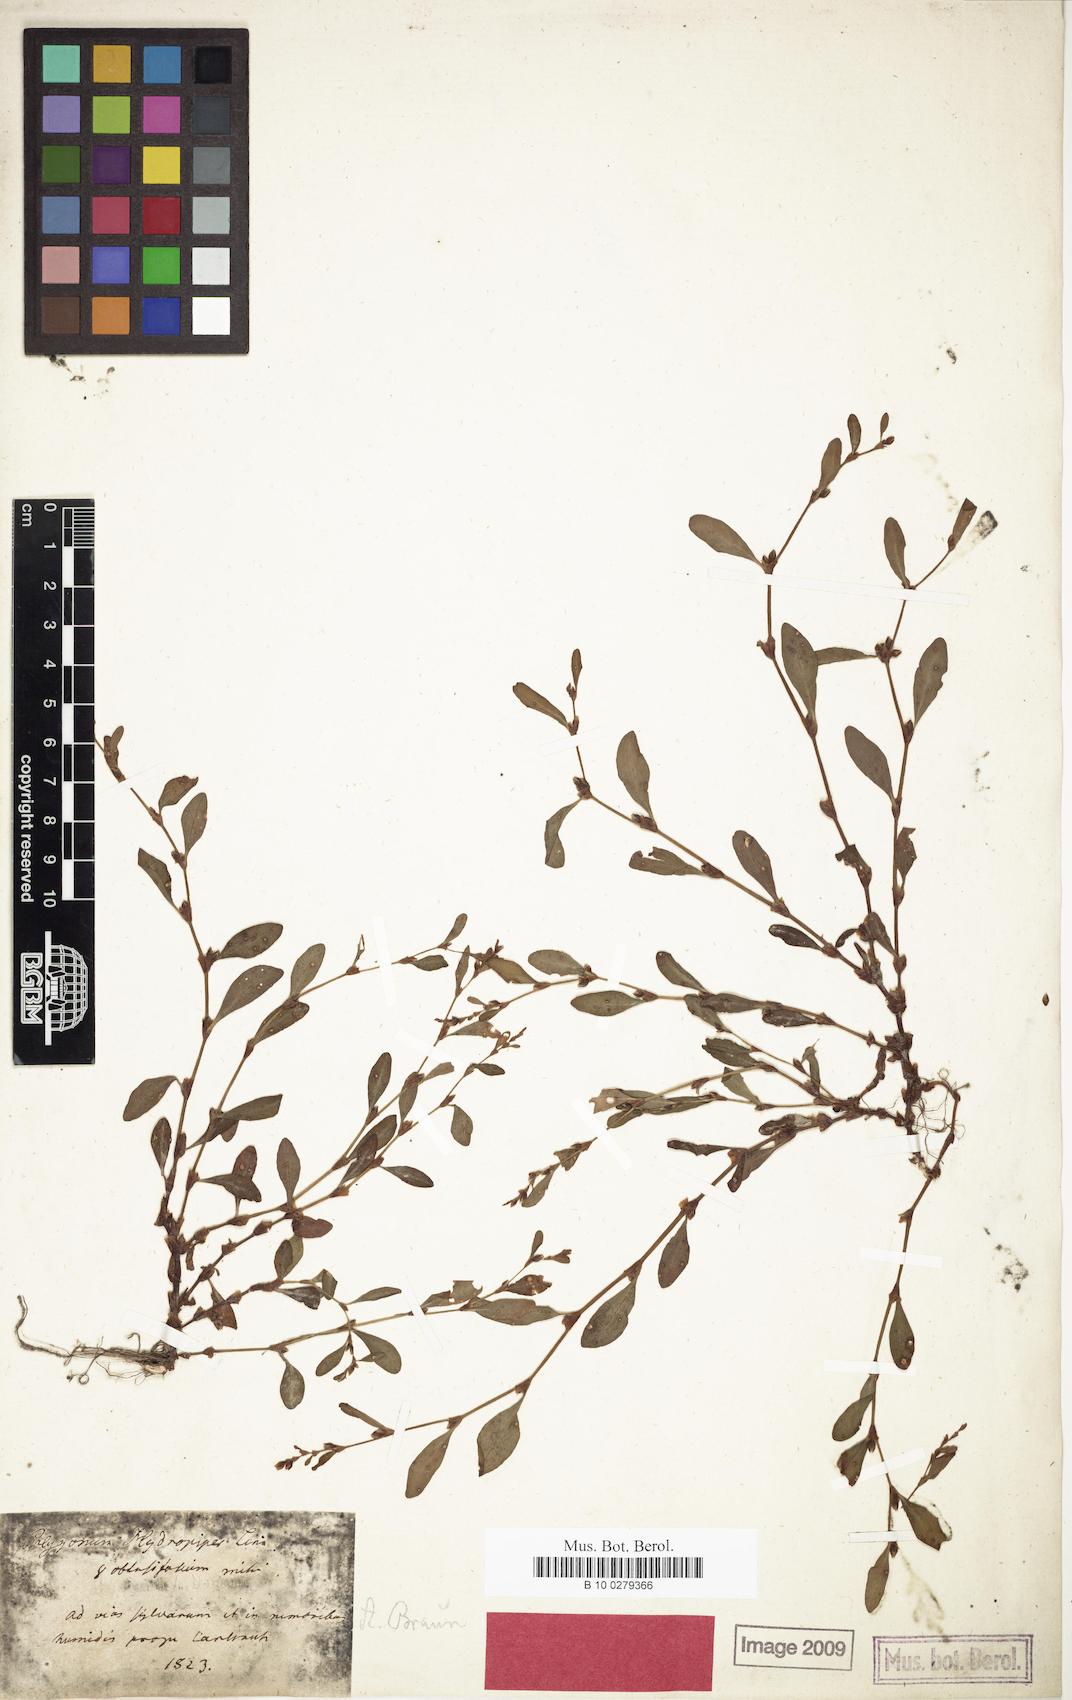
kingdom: Plantae
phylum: Tracheophyta
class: Magnoliopsida
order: Caryophyllales
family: Polygonaceae
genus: Persicaria
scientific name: Persicaria hydropiper
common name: Water-pepper
